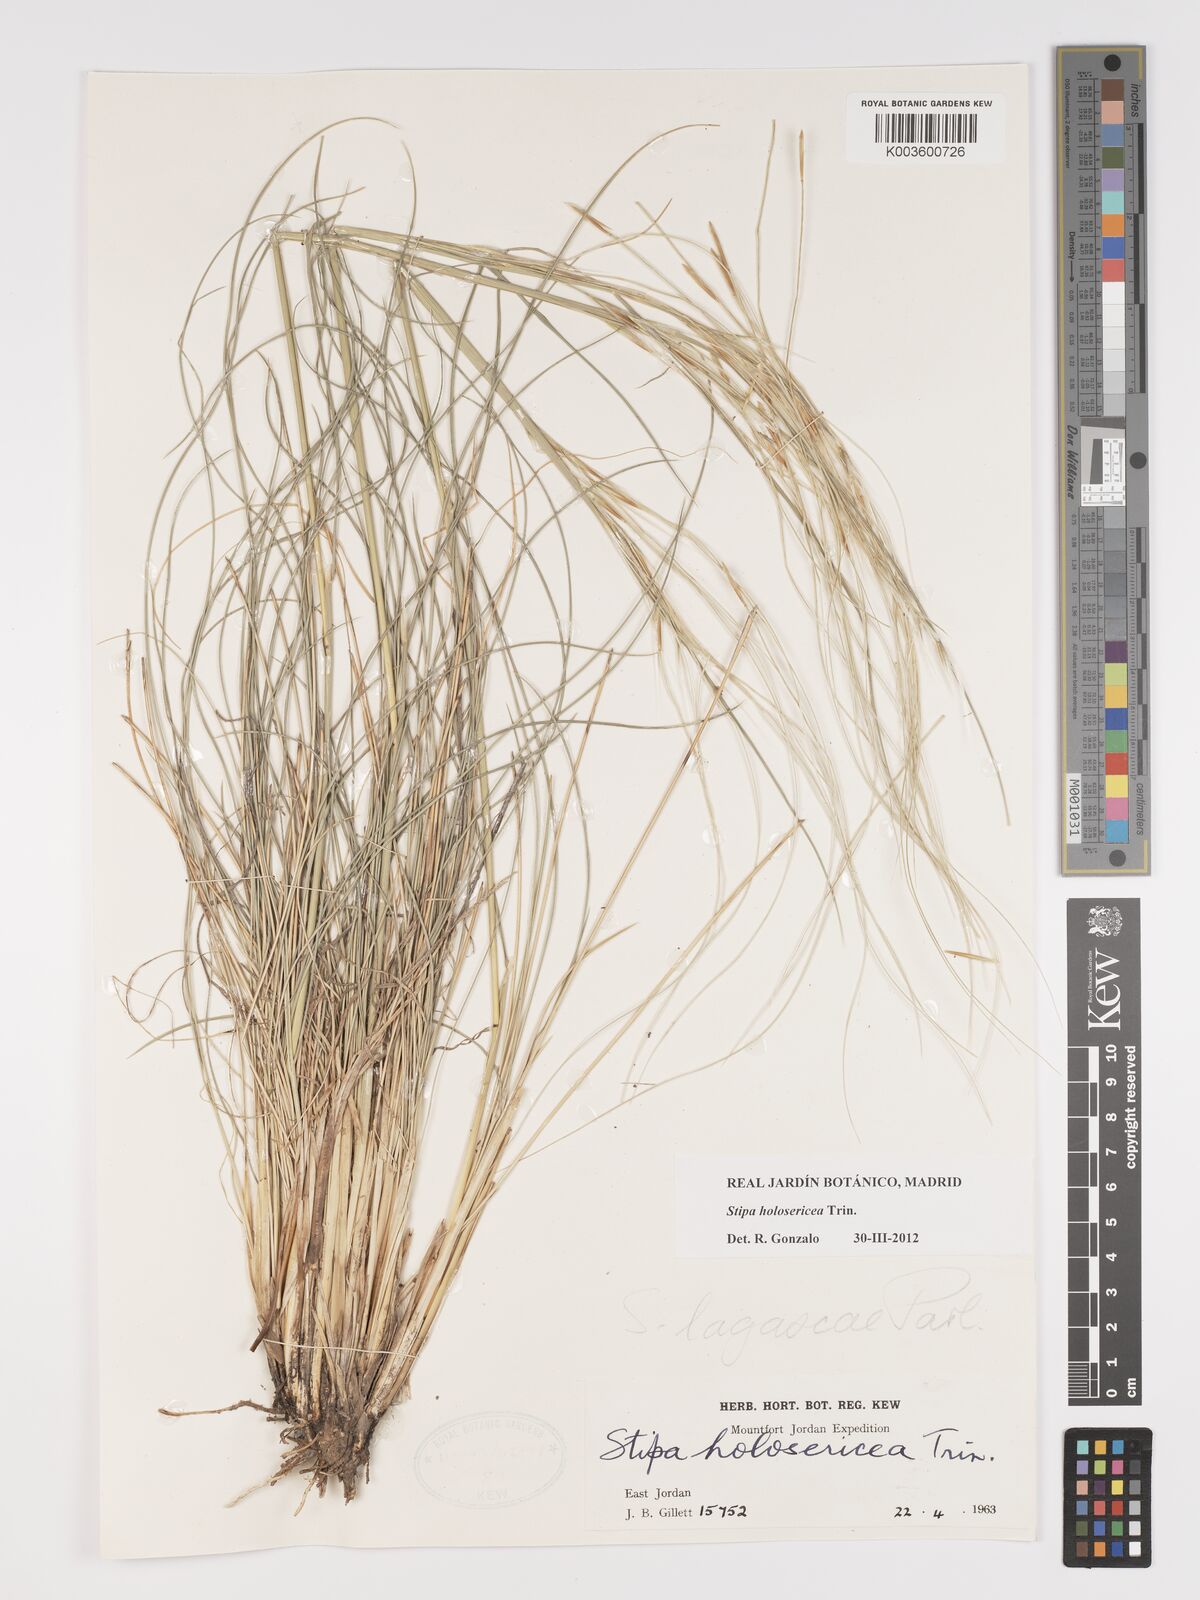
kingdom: Plantae
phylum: Tracheophyta
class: Liliopsida
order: Poales
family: Poaceae
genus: Stipa
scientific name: Stipa holosericea
